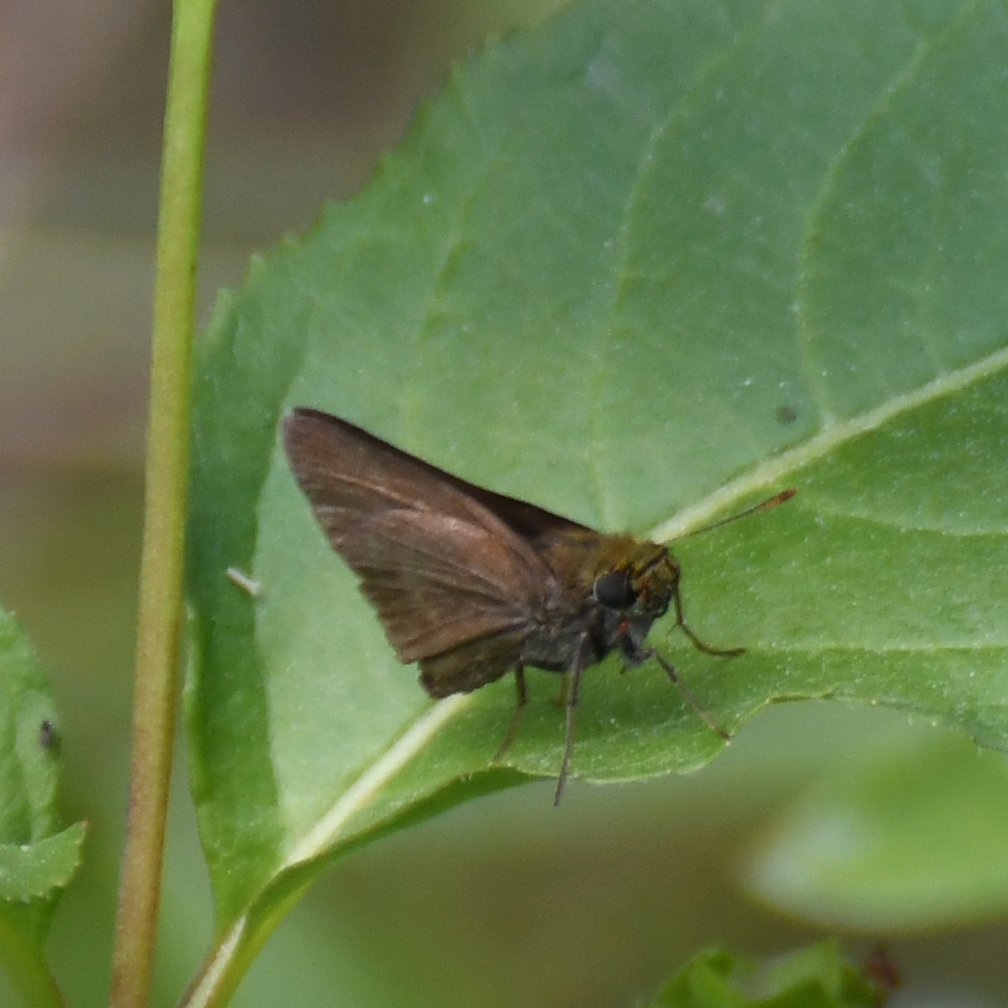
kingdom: Animalia
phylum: Arthropoda
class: Insecta
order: Lepidoptera
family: Hesperiidae
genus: Euphyes
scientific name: Euphyes vestris
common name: Dun Skipper
